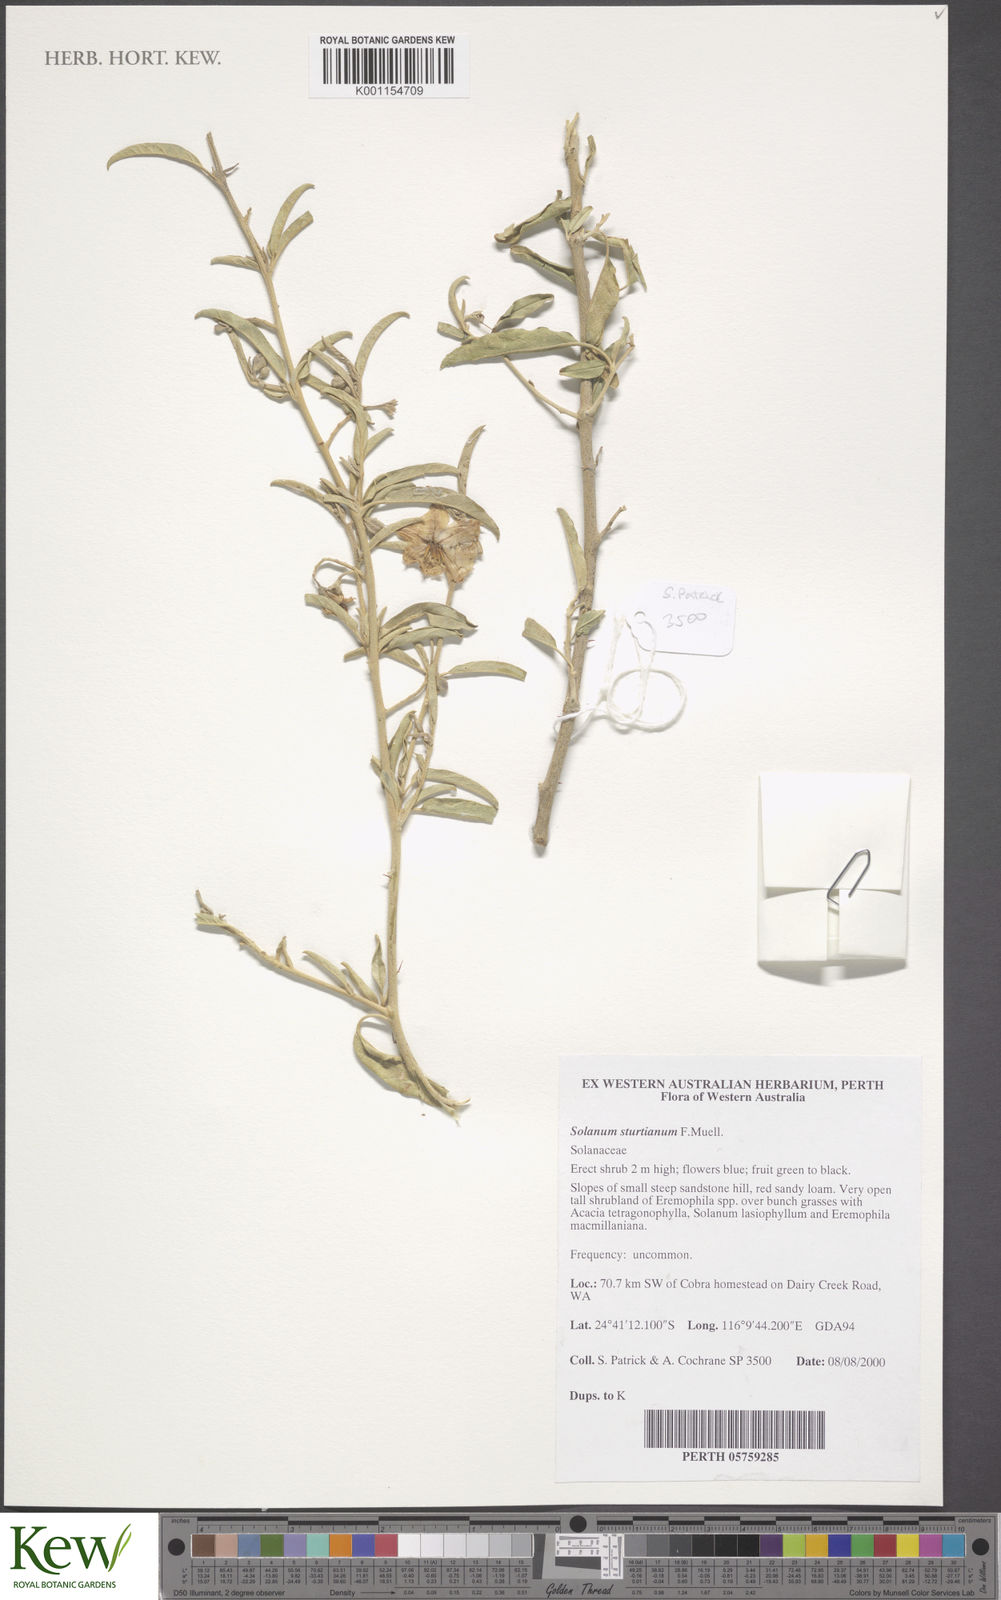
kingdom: Plantae
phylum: Tracheophyta
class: Magnoliopsida
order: Solanales
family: Solanaceae
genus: Solanum
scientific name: Solanum sturtianum
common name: Thargomindah nightshade
